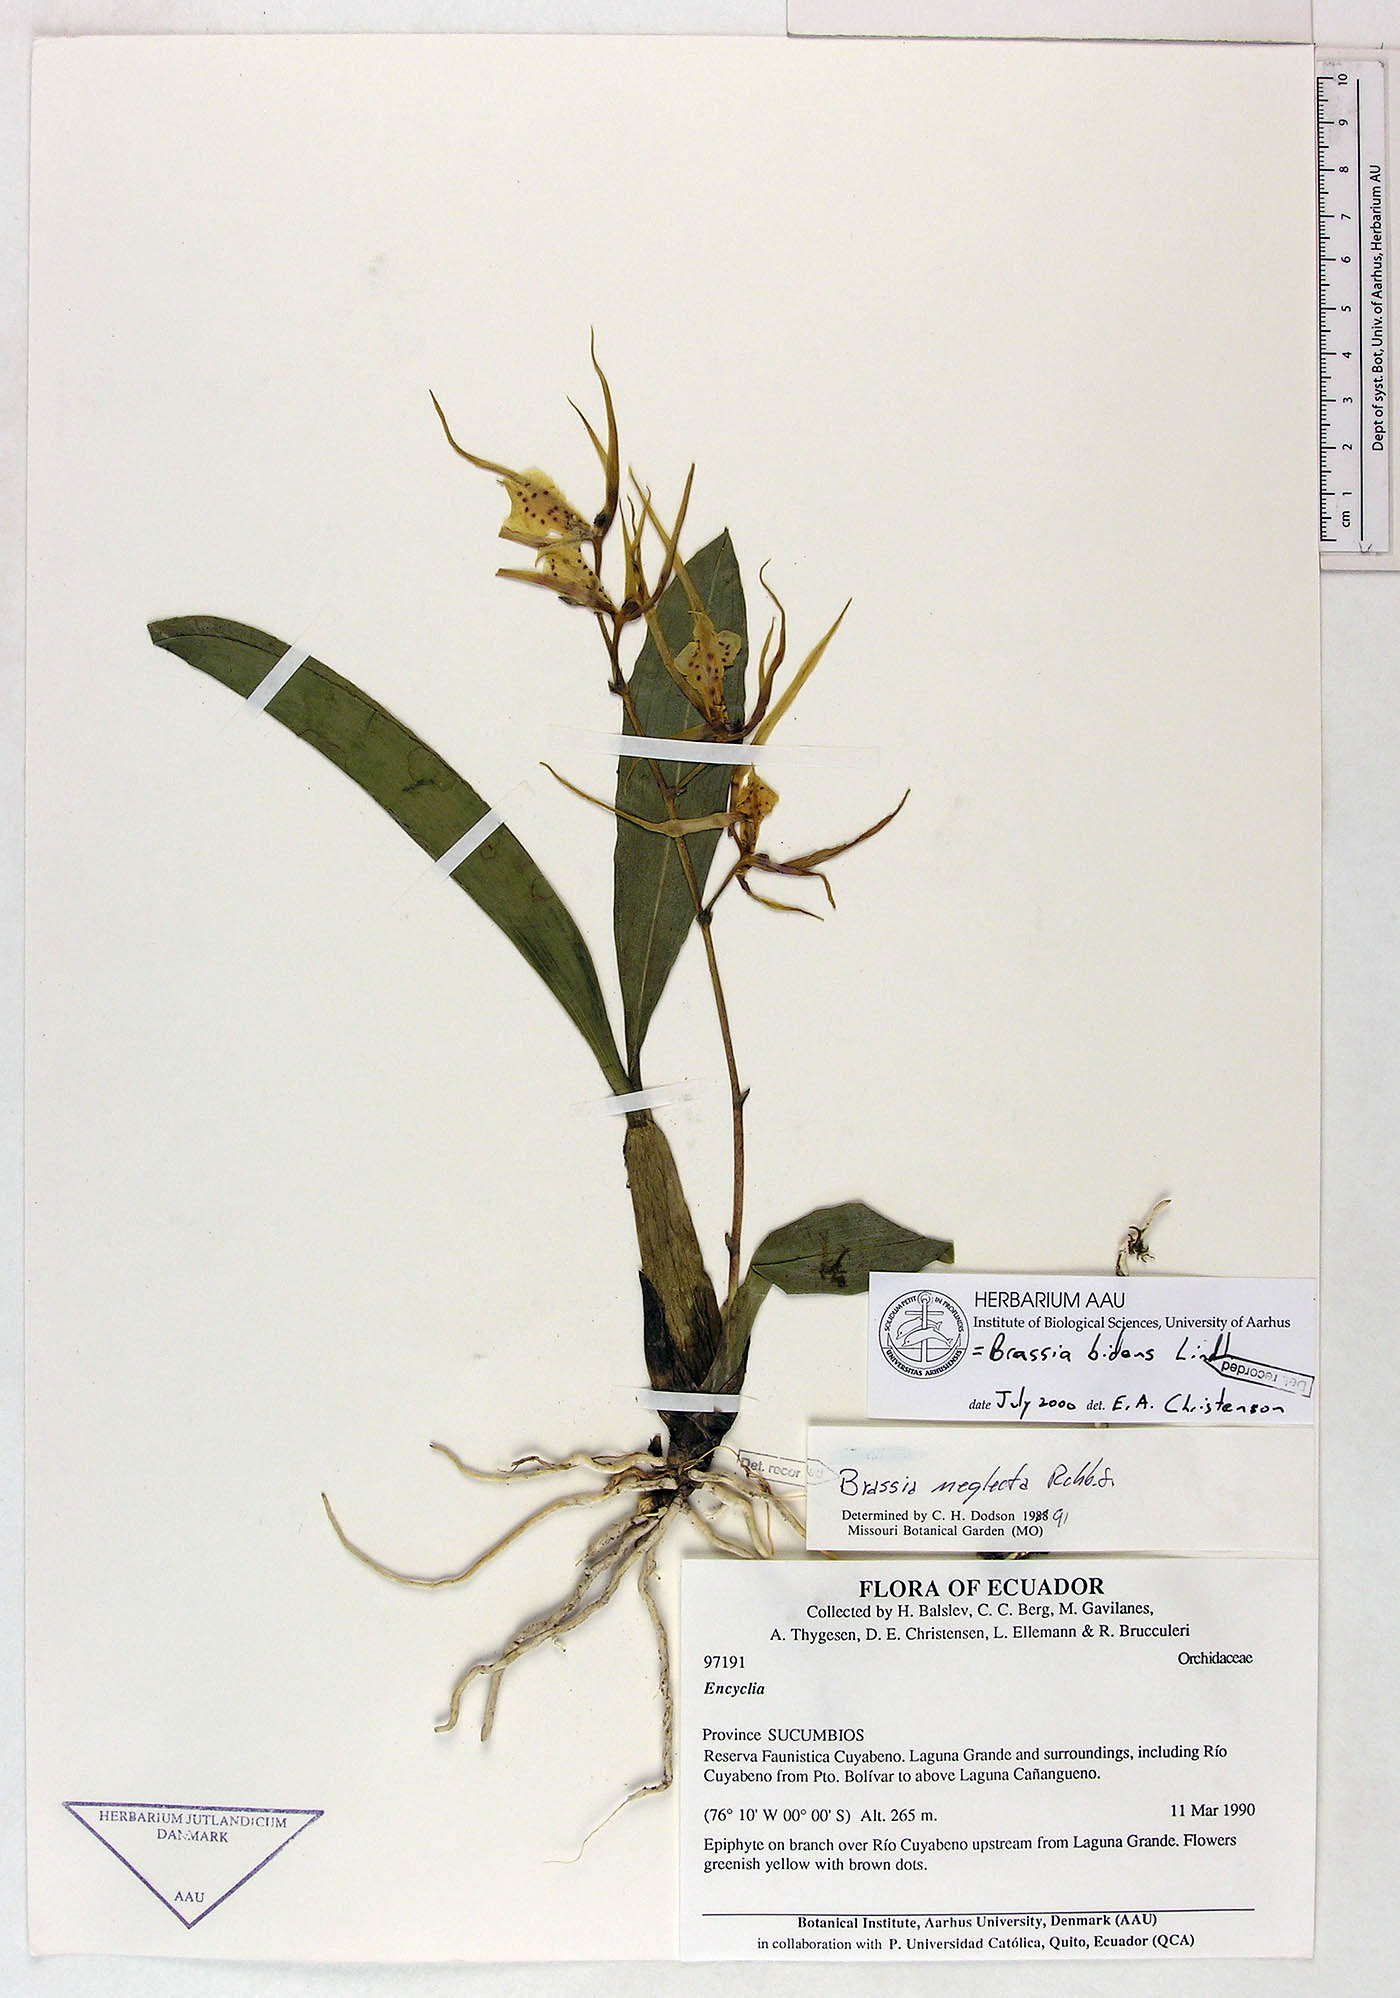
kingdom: Plantae
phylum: Tracheophyta
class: Liliopsida
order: Asparagales
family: Orchidaceae
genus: Brassia
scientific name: Brassia bidens
